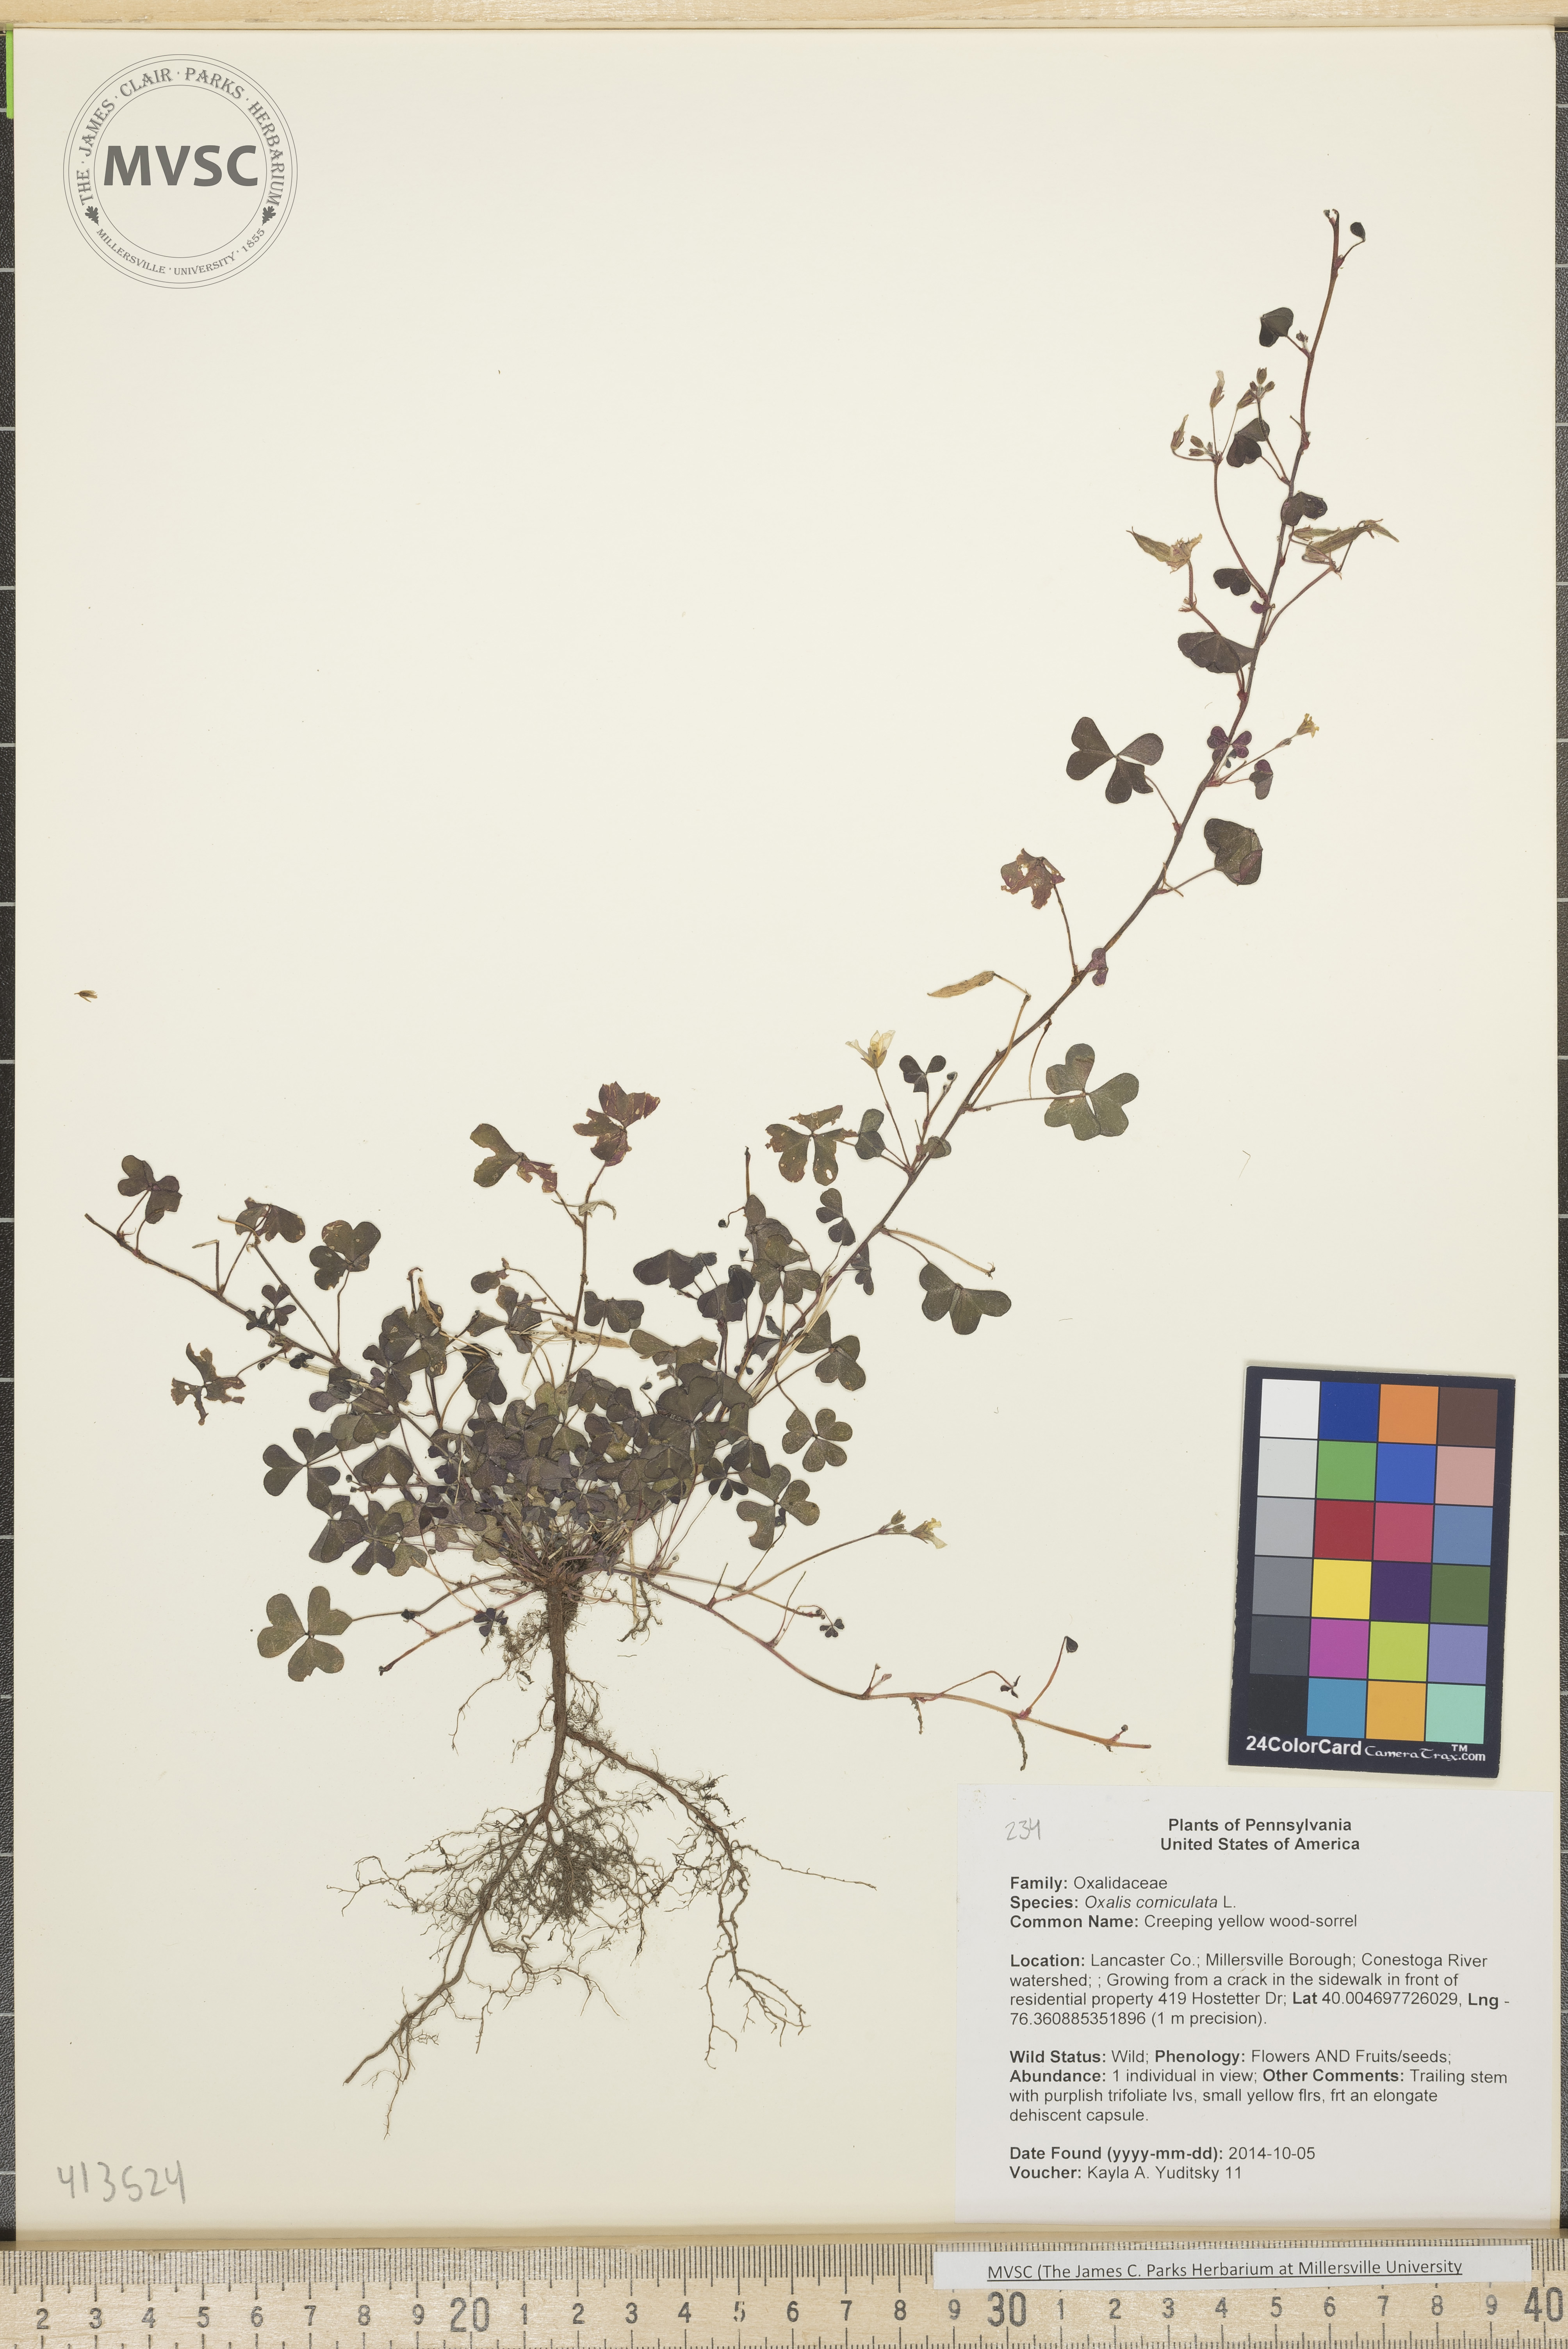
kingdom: Plantae
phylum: Tracheophyta
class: Magnoliopsida
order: Oxalidales
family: Oxalidaceae
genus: Oxalis
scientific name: Oxalis corniculata
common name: Creeping yellow wood-sorrel
